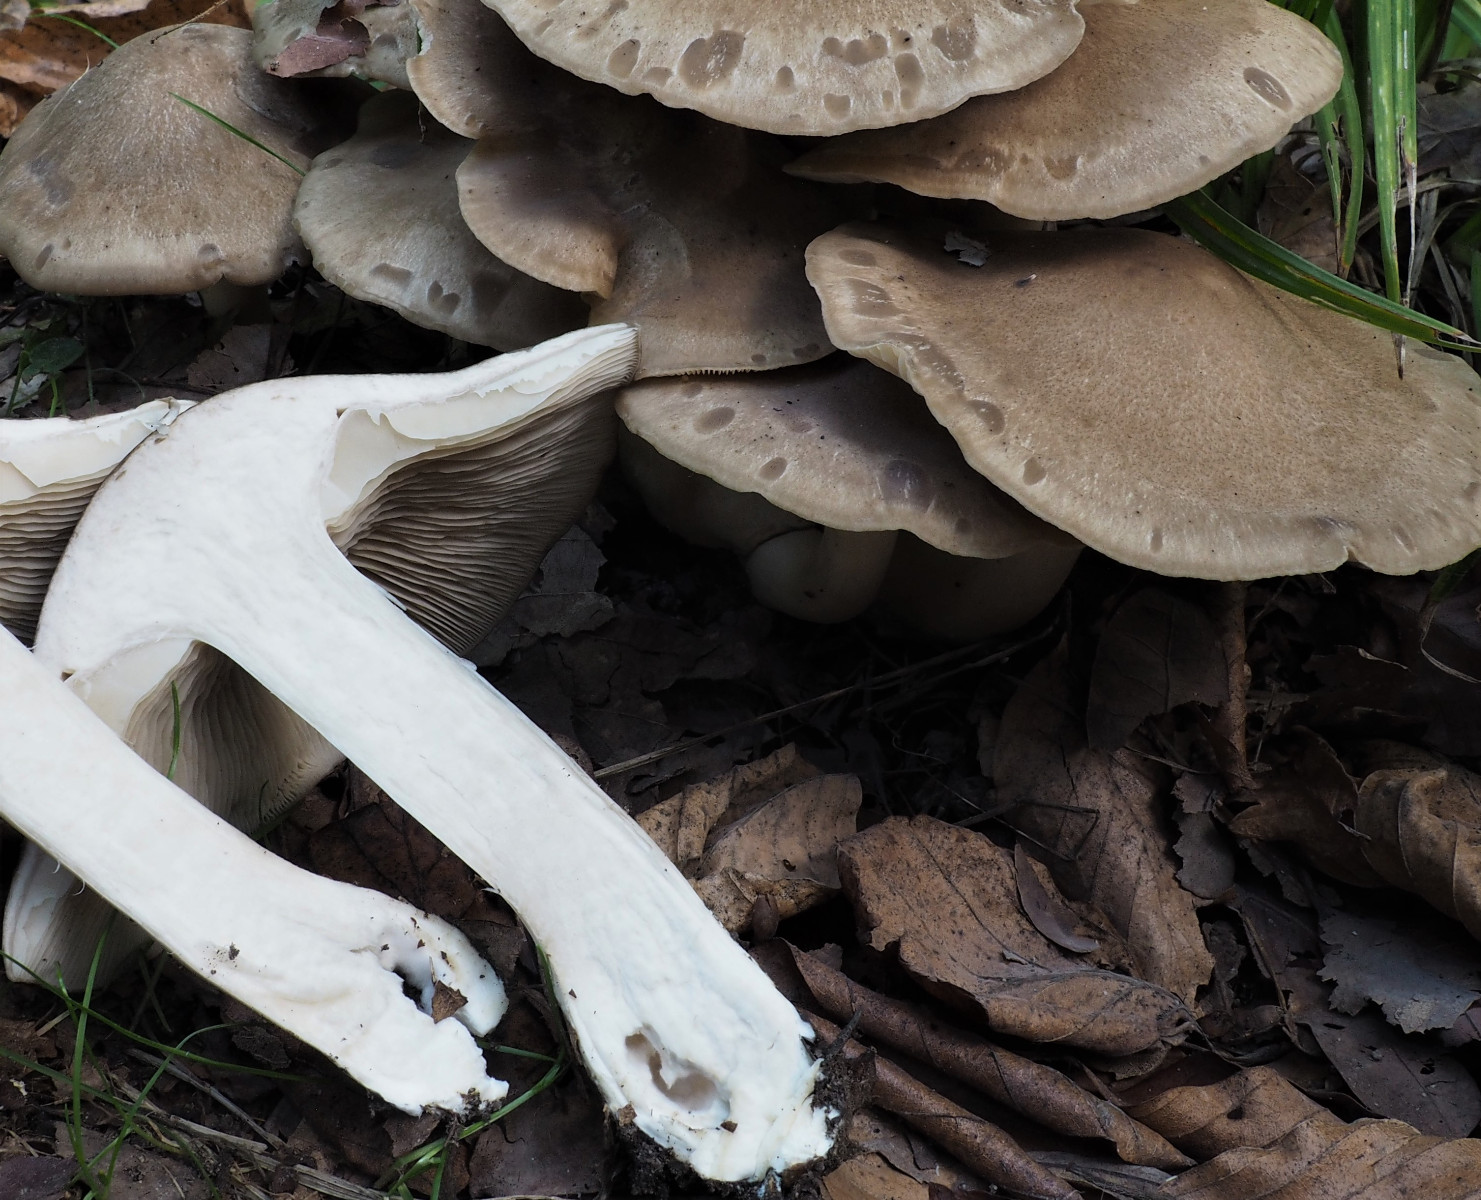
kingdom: Fungi
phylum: Basidiomycota
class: Agaricomycetes
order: Agaricales
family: Lyophyllaceae
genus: Lyophyllum
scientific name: Lyophyllum
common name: gråblad
